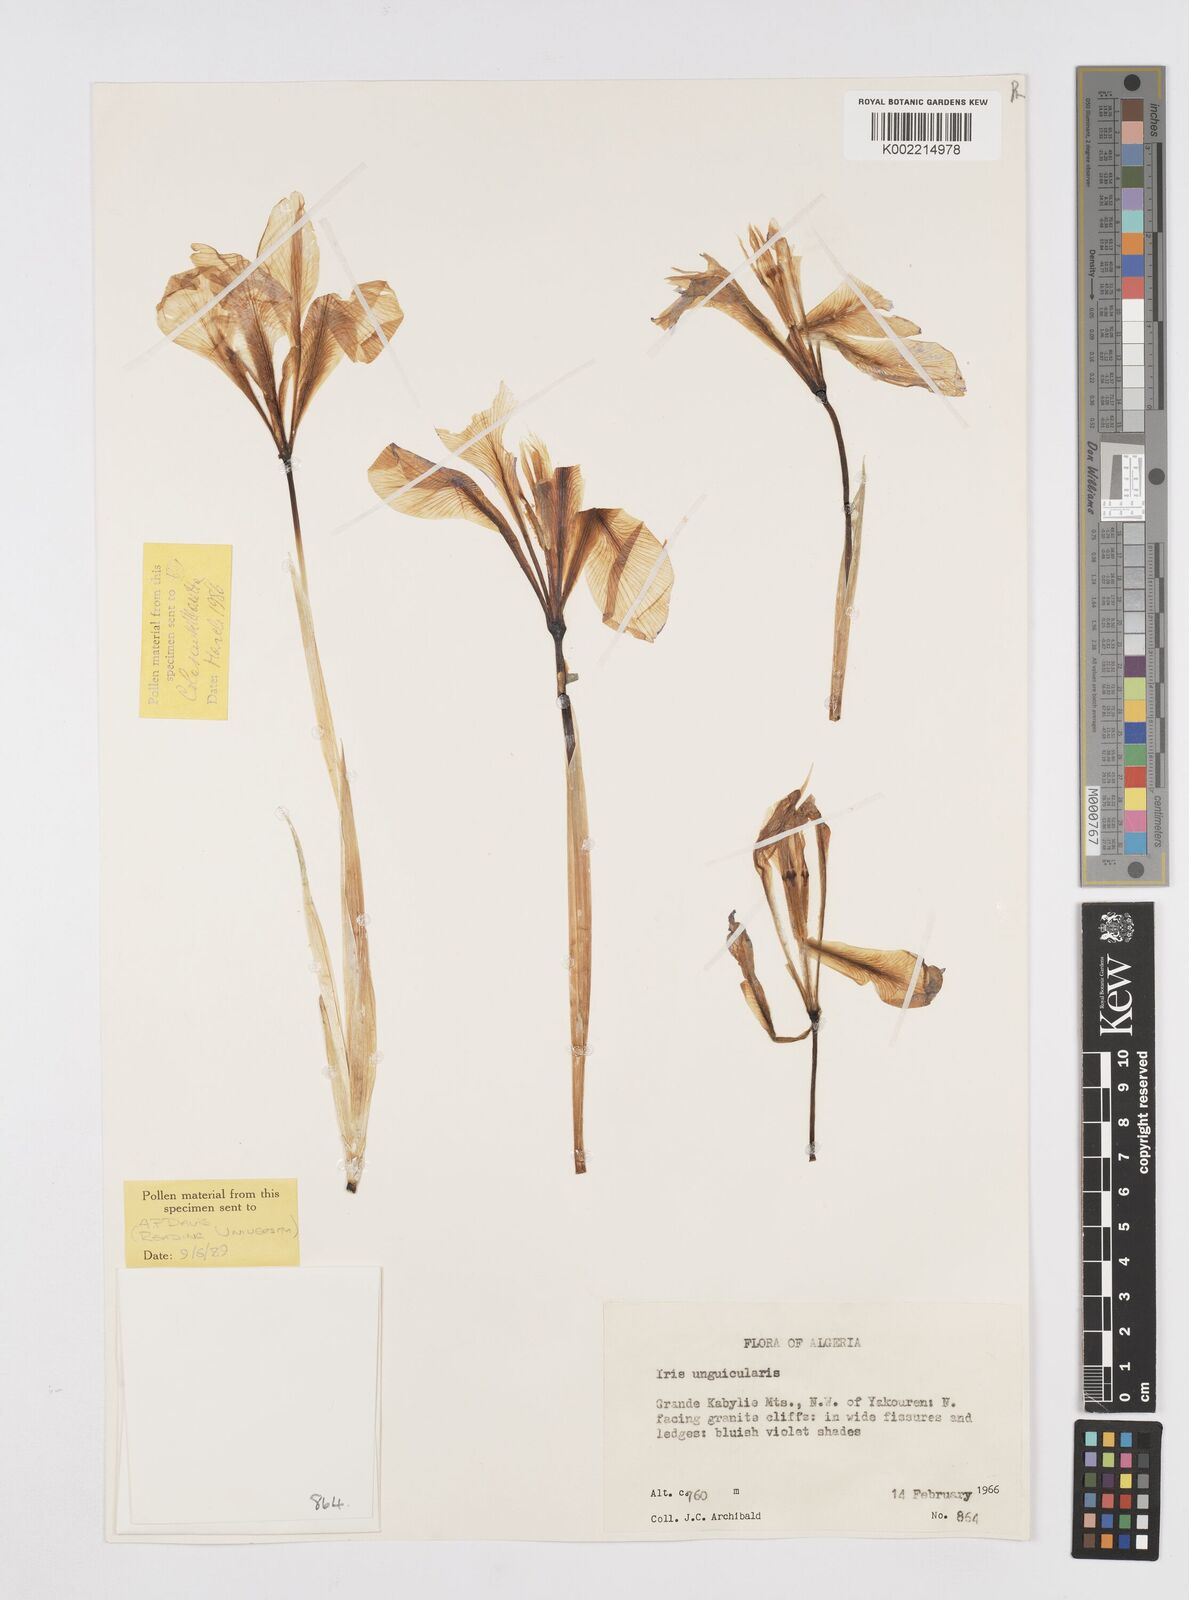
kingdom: Plantae
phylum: Tracheophyta
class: Liliopsida
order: Asparagales
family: Iridaceae
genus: Iris
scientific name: Iris unguicularis
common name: Algerian iris
